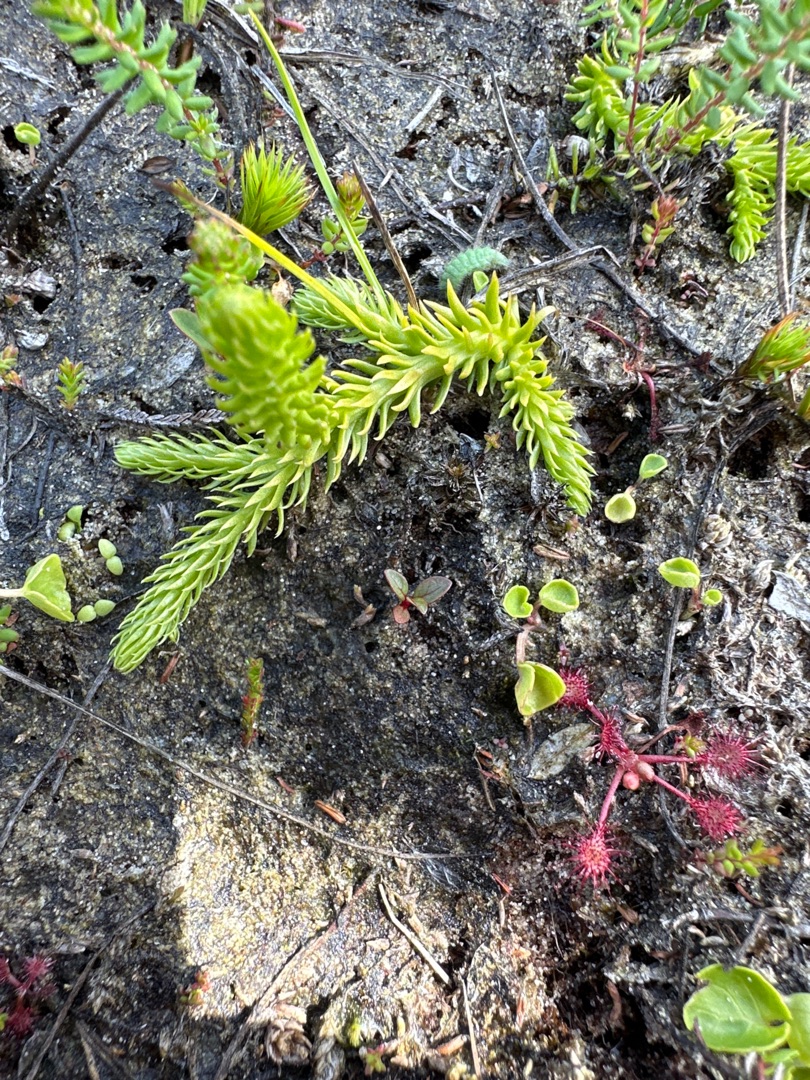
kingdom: Plantae
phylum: Tracheophyta
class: Lycopodiopsida
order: Lycopodiales
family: Lycopodiaceae
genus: Lycopodiella
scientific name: Lycopodiella inundata
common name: Liden ulvefod
